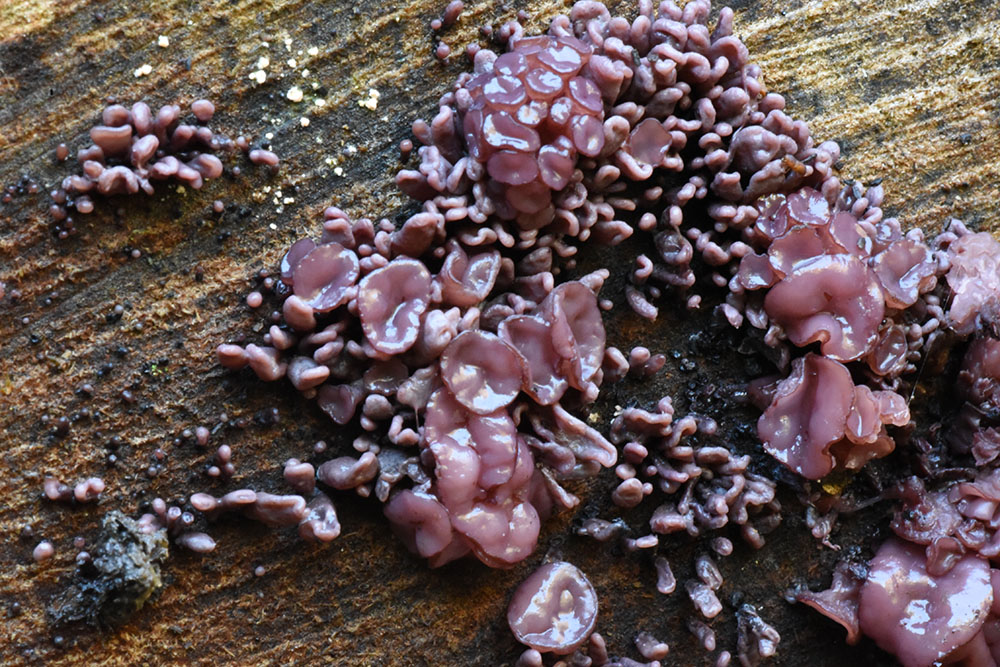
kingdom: Fungi
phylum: Ascomycota
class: Leotiomycetes
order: Helotiales
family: Gelatinodiscaceae
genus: Ascocoryne
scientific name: Ascocoryne sarcoides
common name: Purple jellydisc
